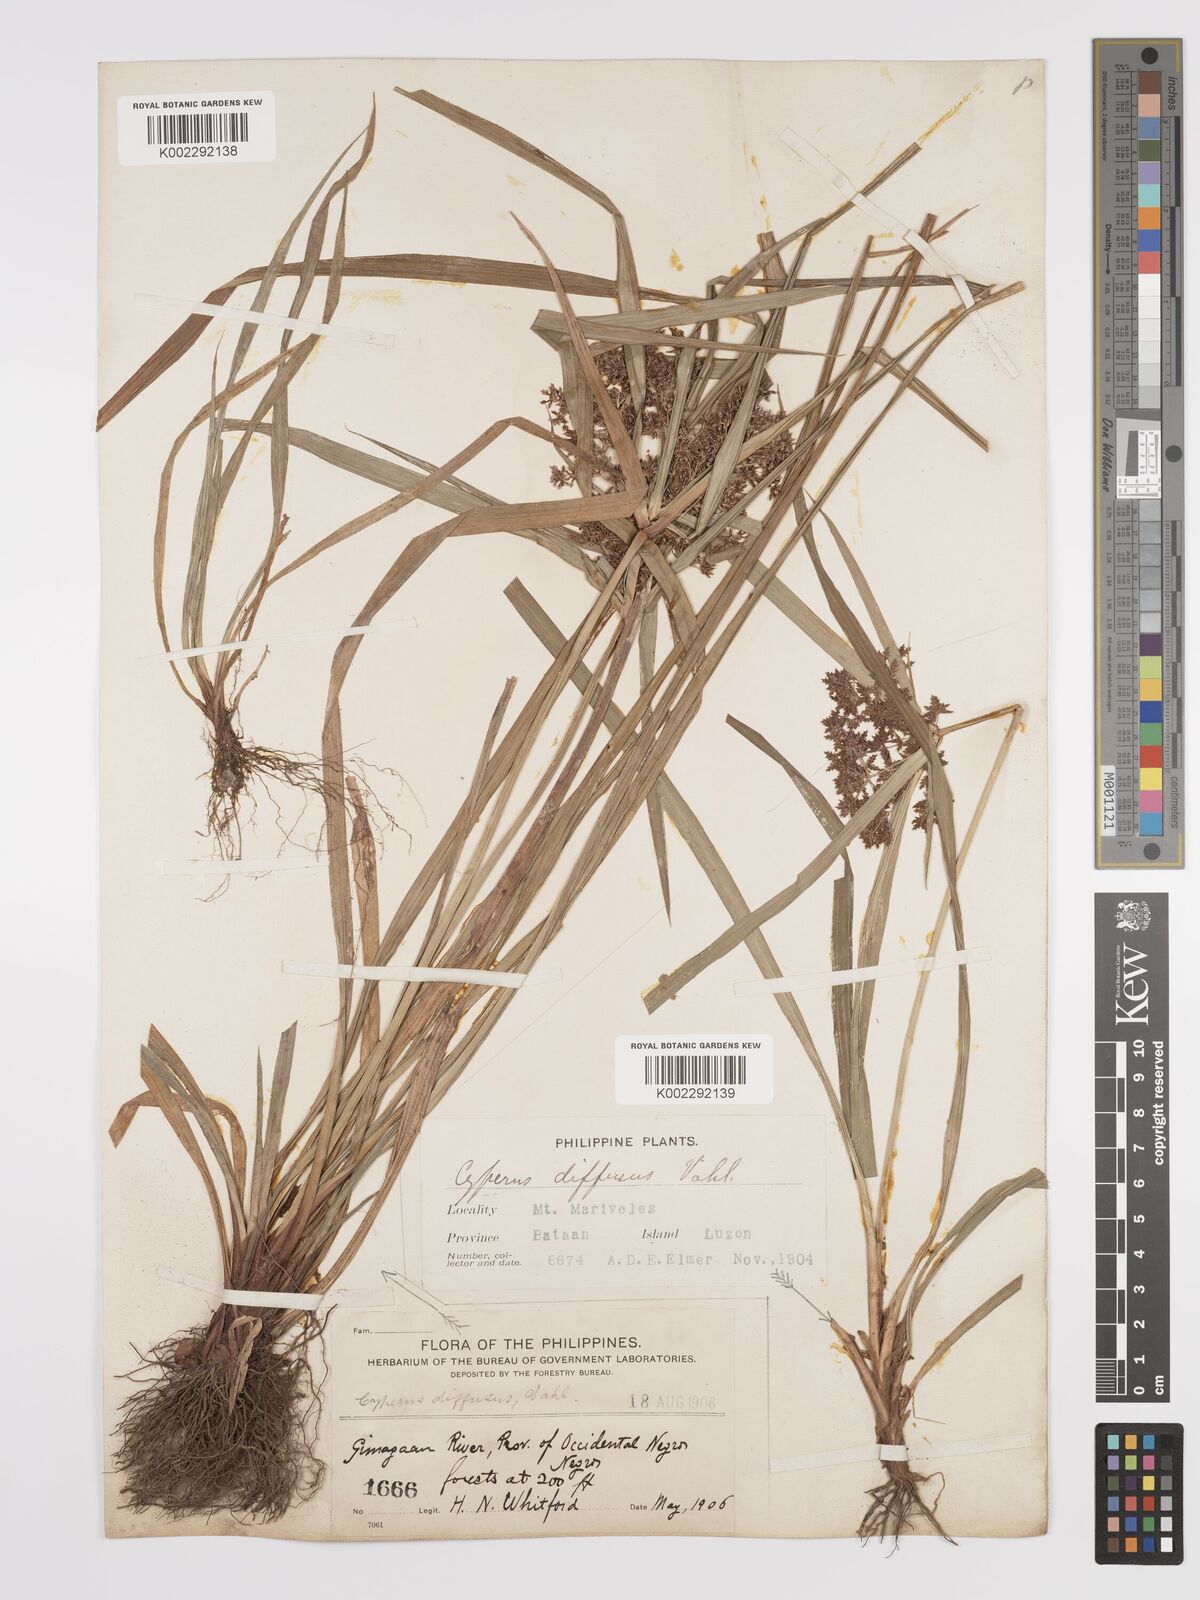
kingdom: Plantae
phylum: Tracheophyta
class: Liliopsida
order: Poales
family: Cyperaceae
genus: Cyperus
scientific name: Cyperus diffusus
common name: Dwarf umbrella grass
